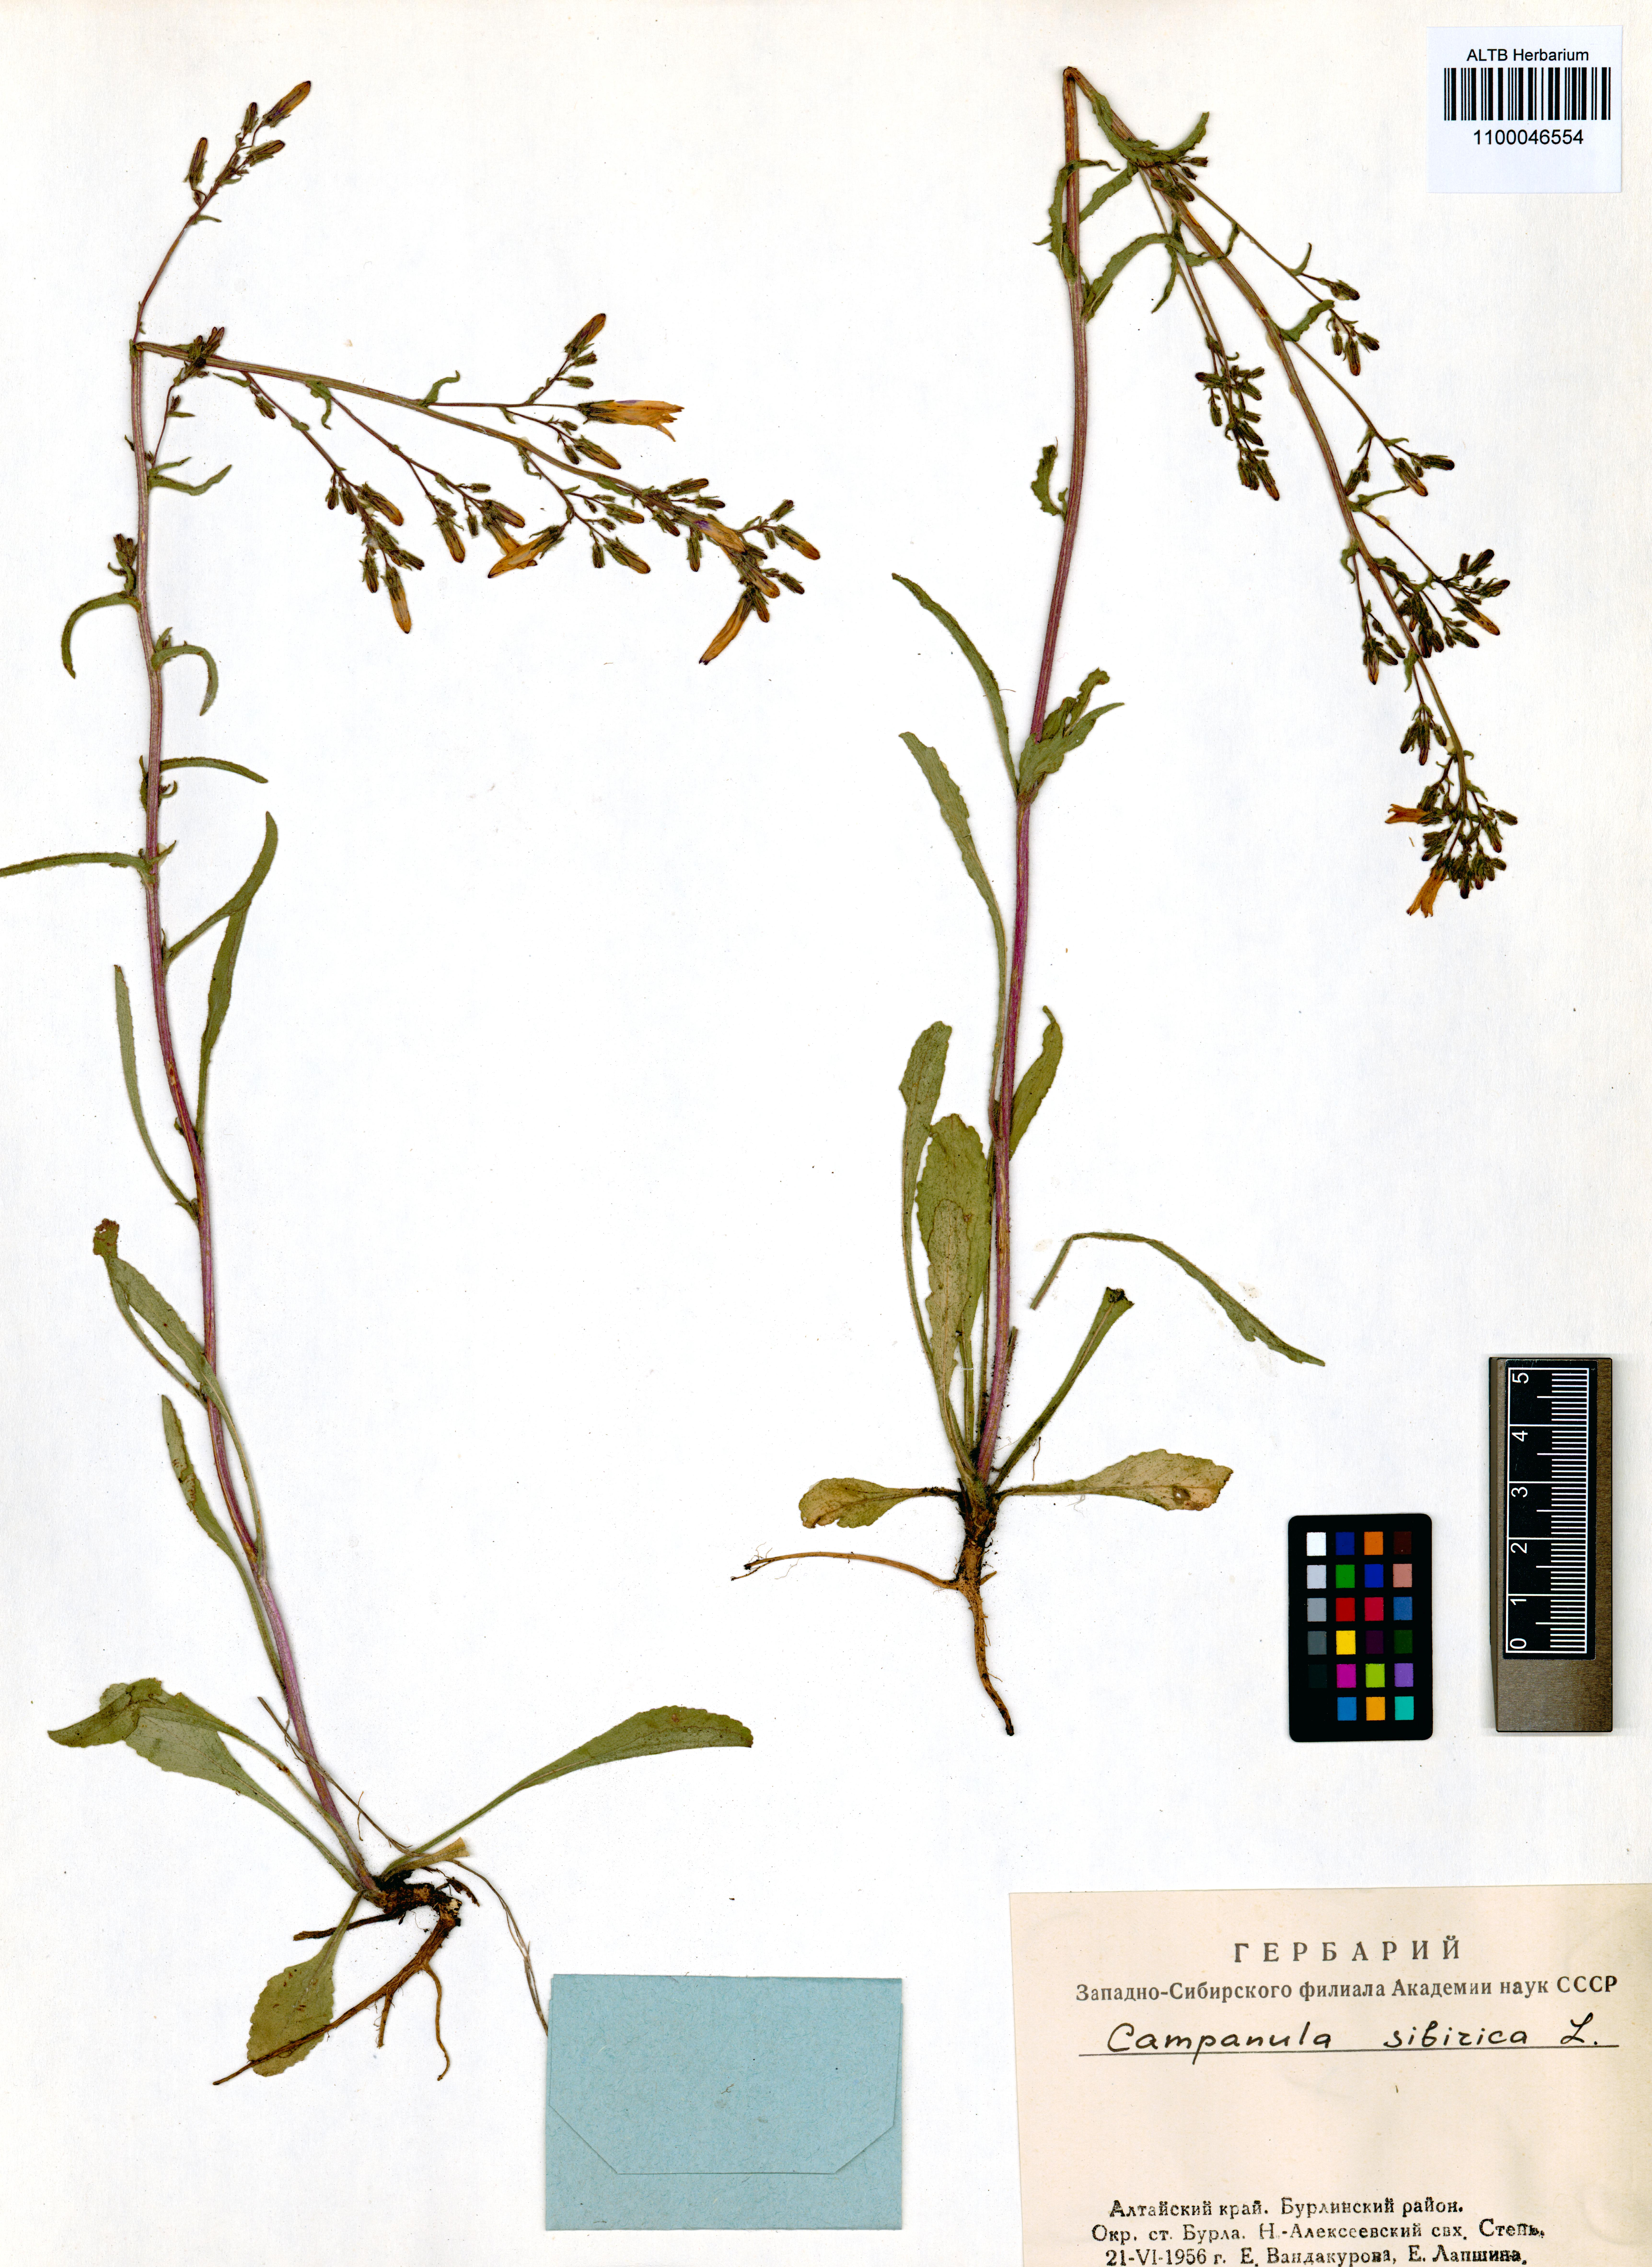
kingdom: Plantae
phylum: Tracheophyta
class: Magnoliopsida
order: Asterales
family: Campanulaceae
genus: Campanula
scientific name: Campanula sibirica
